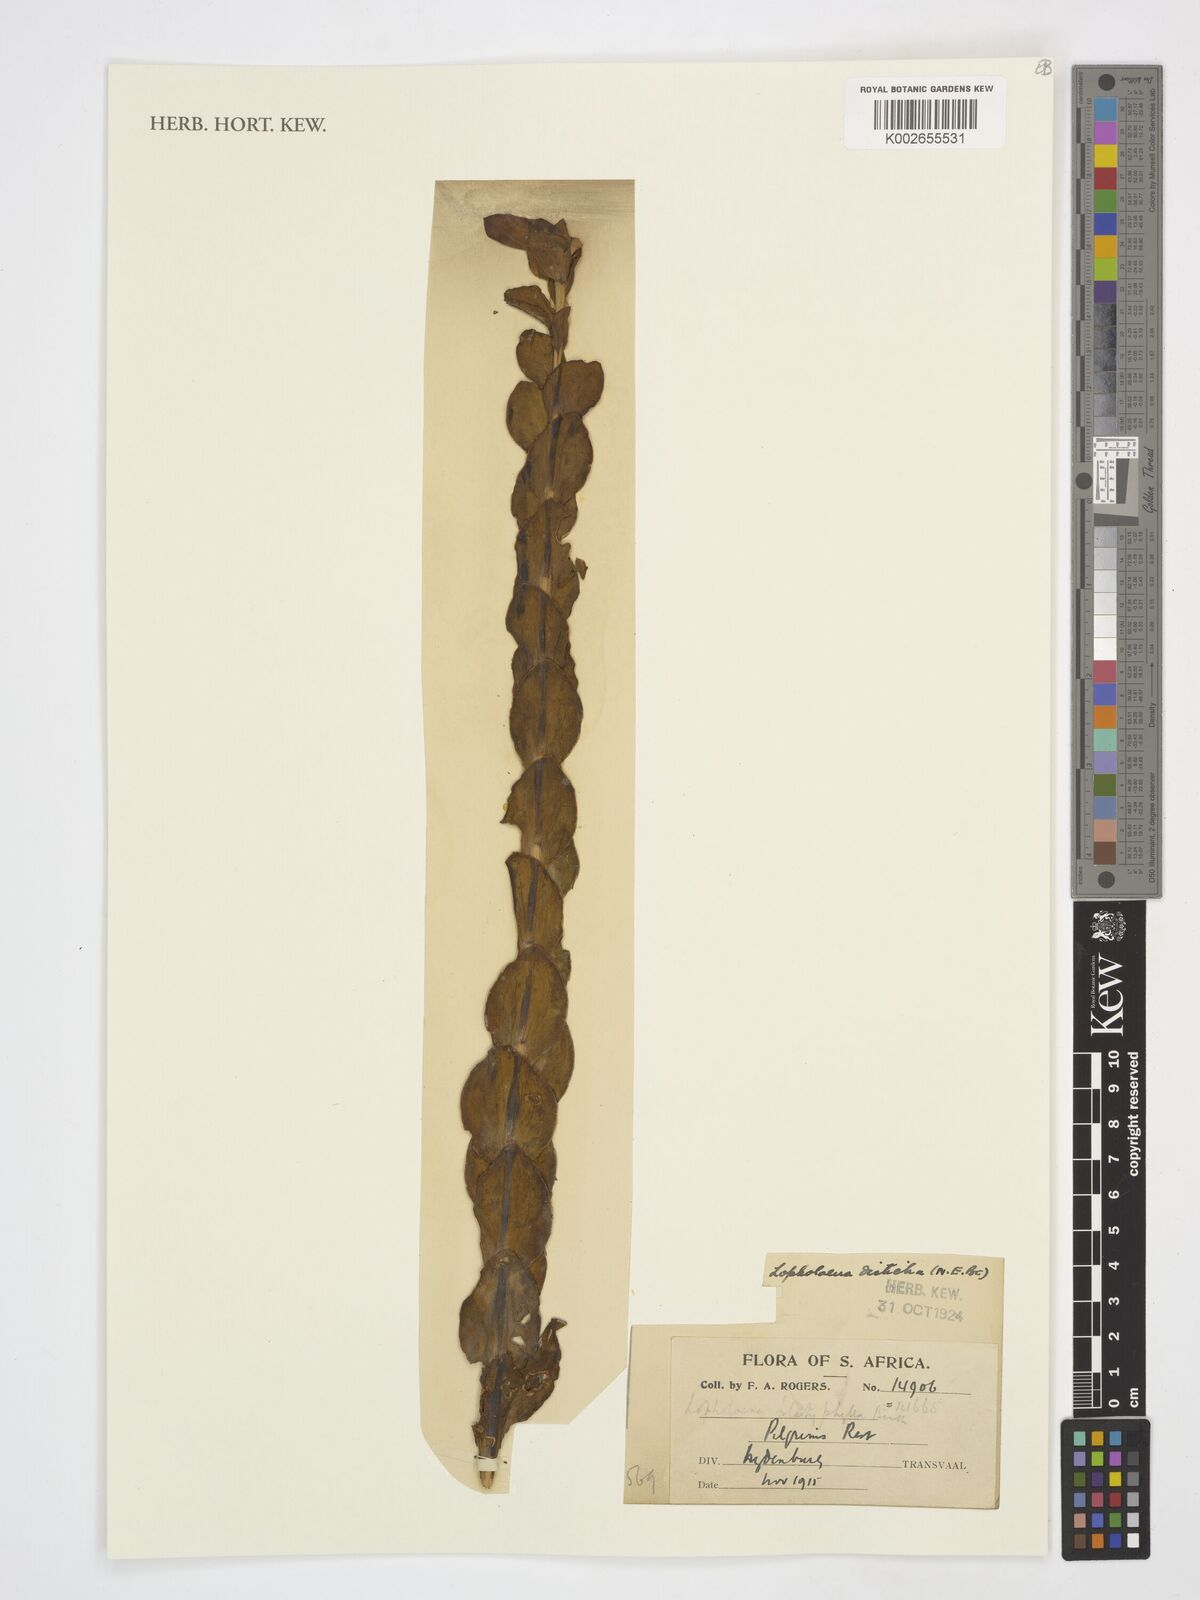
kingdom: Plantae
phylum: Tracheophyta
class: Magnoliopsida
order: Asterales
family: Asteraceae
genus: Lopholaena
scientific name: Lopholaena
